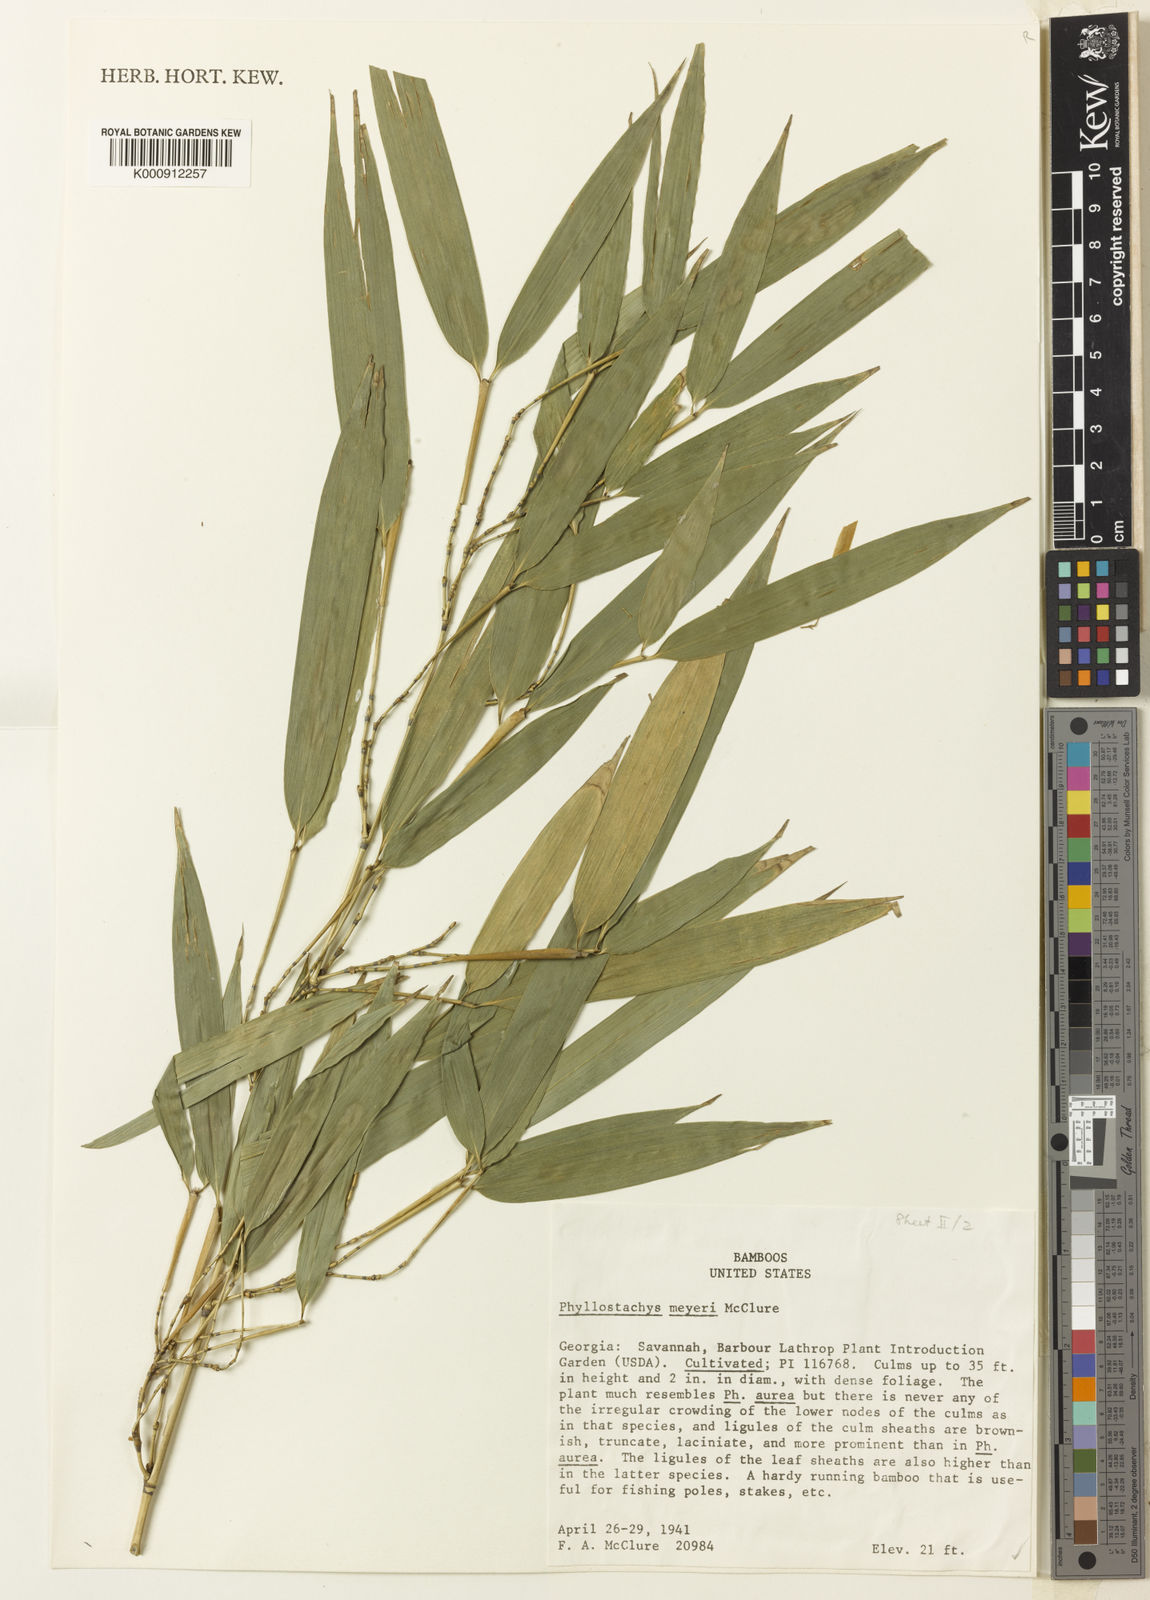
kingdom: Plantae
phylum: Tracheophyta
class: Liliopsida
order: Poales
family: Poaceae
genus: Phyllostachys
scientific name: Phyllostachys meyeri
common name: Meyer's bamboo
